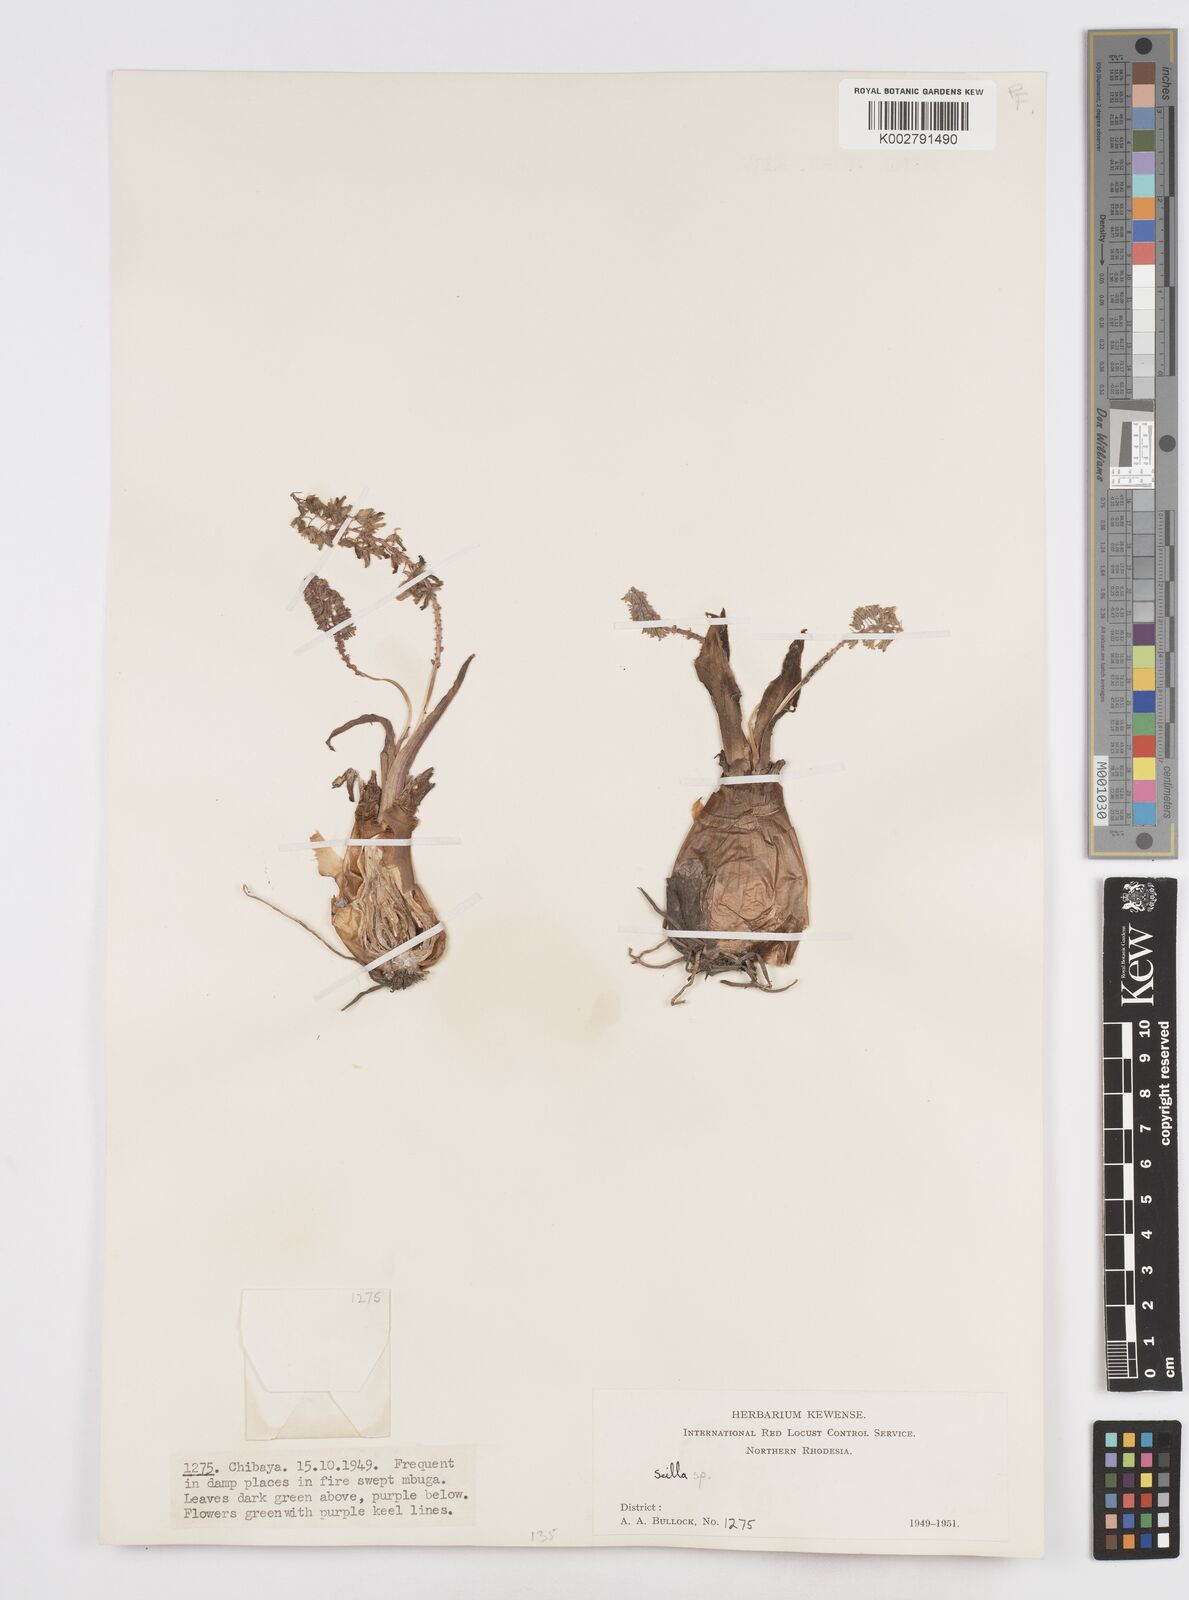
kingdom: Plantae
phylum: Tracheophyta
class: Liliopsida
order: Asparagales
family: Asparagaceae
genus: Scilla
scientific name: Scilla
